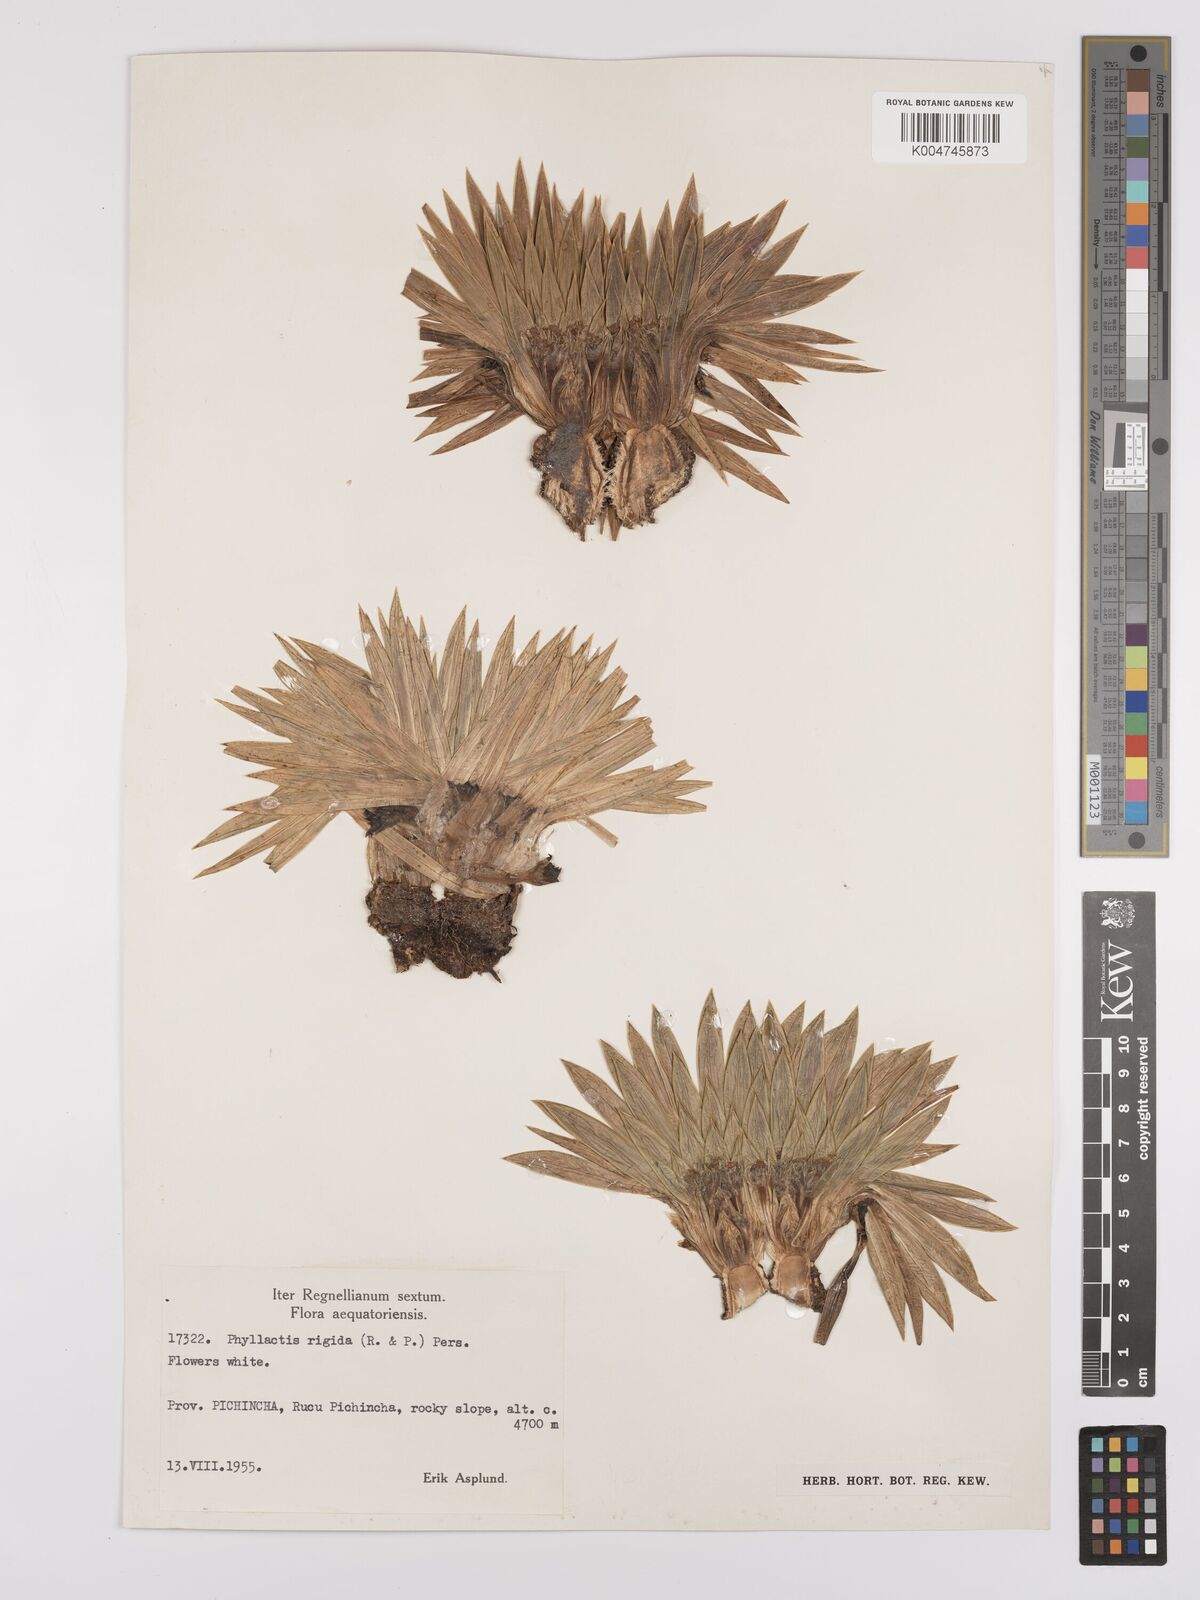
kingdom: Plantae
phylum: Tracheophyta
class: Magnoliopsida
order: Dipsacales
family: Caprifoliaceae
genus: Valeriana
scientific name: Valeriana rigida
